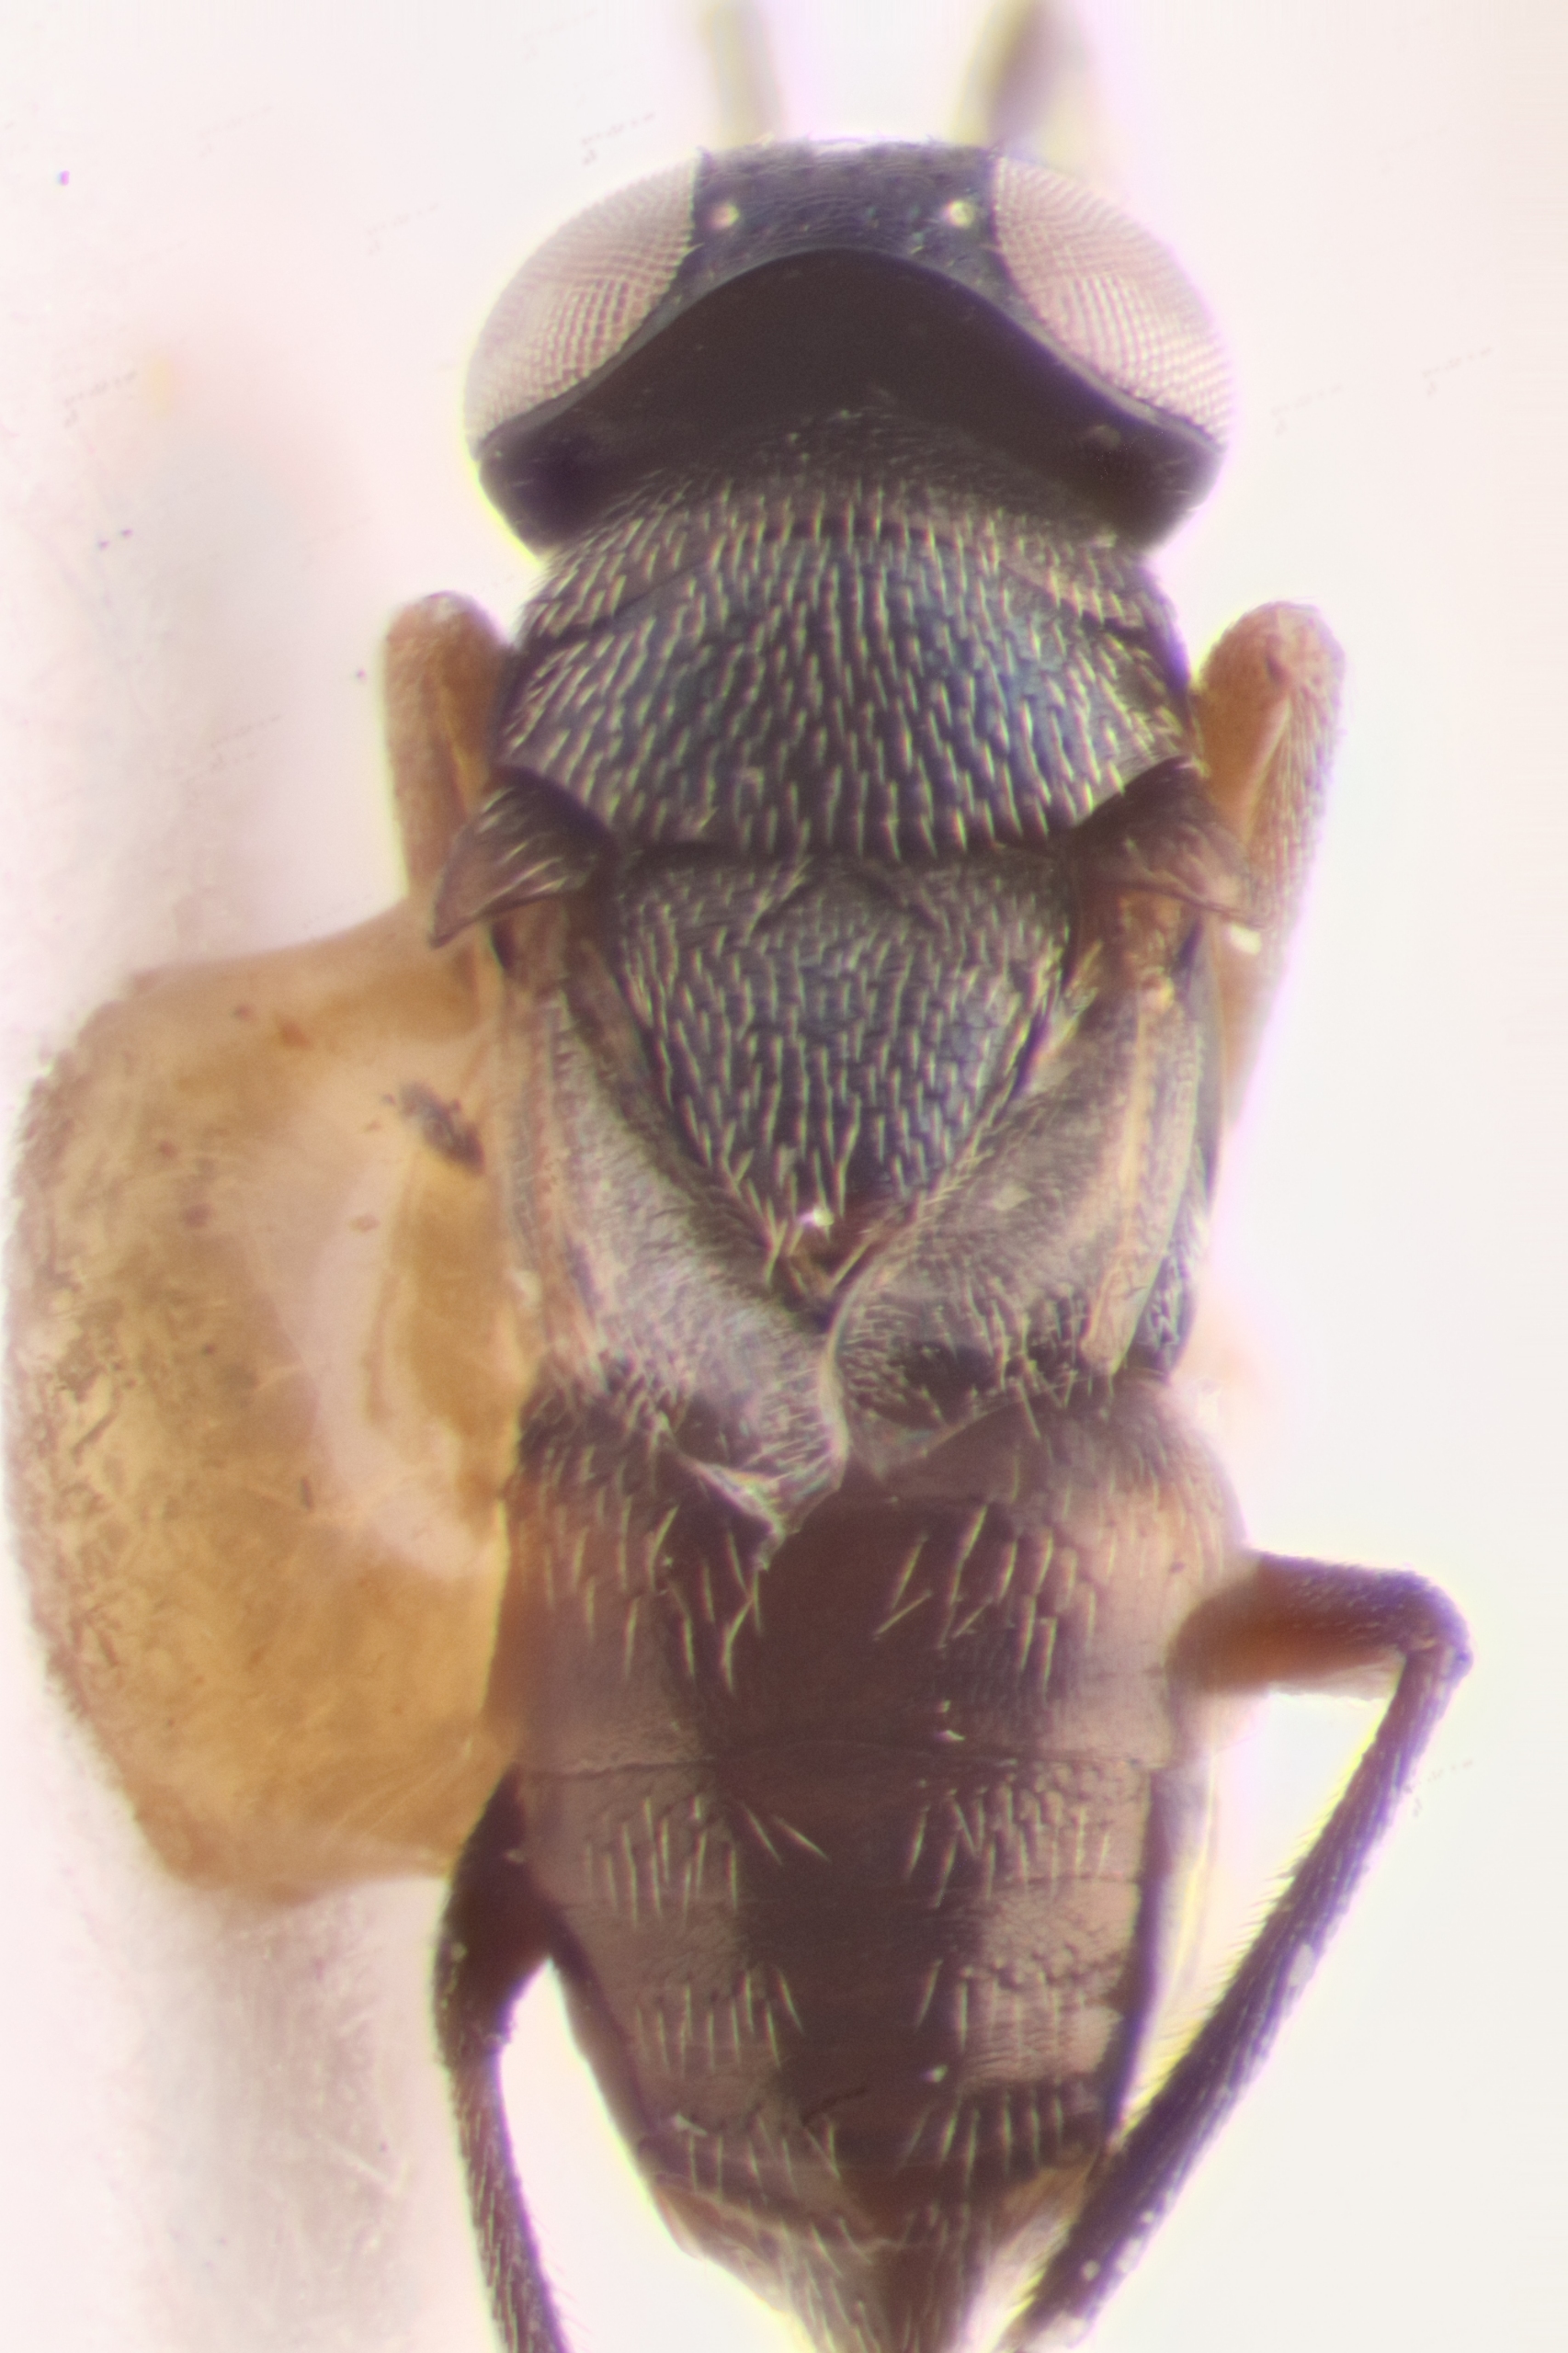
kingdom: Animalia
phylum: Arthropoda
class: Insecta
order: Hymenoptera
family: Encyrtidae
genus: Ericydnus
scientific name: Ericydnus apterogenes
